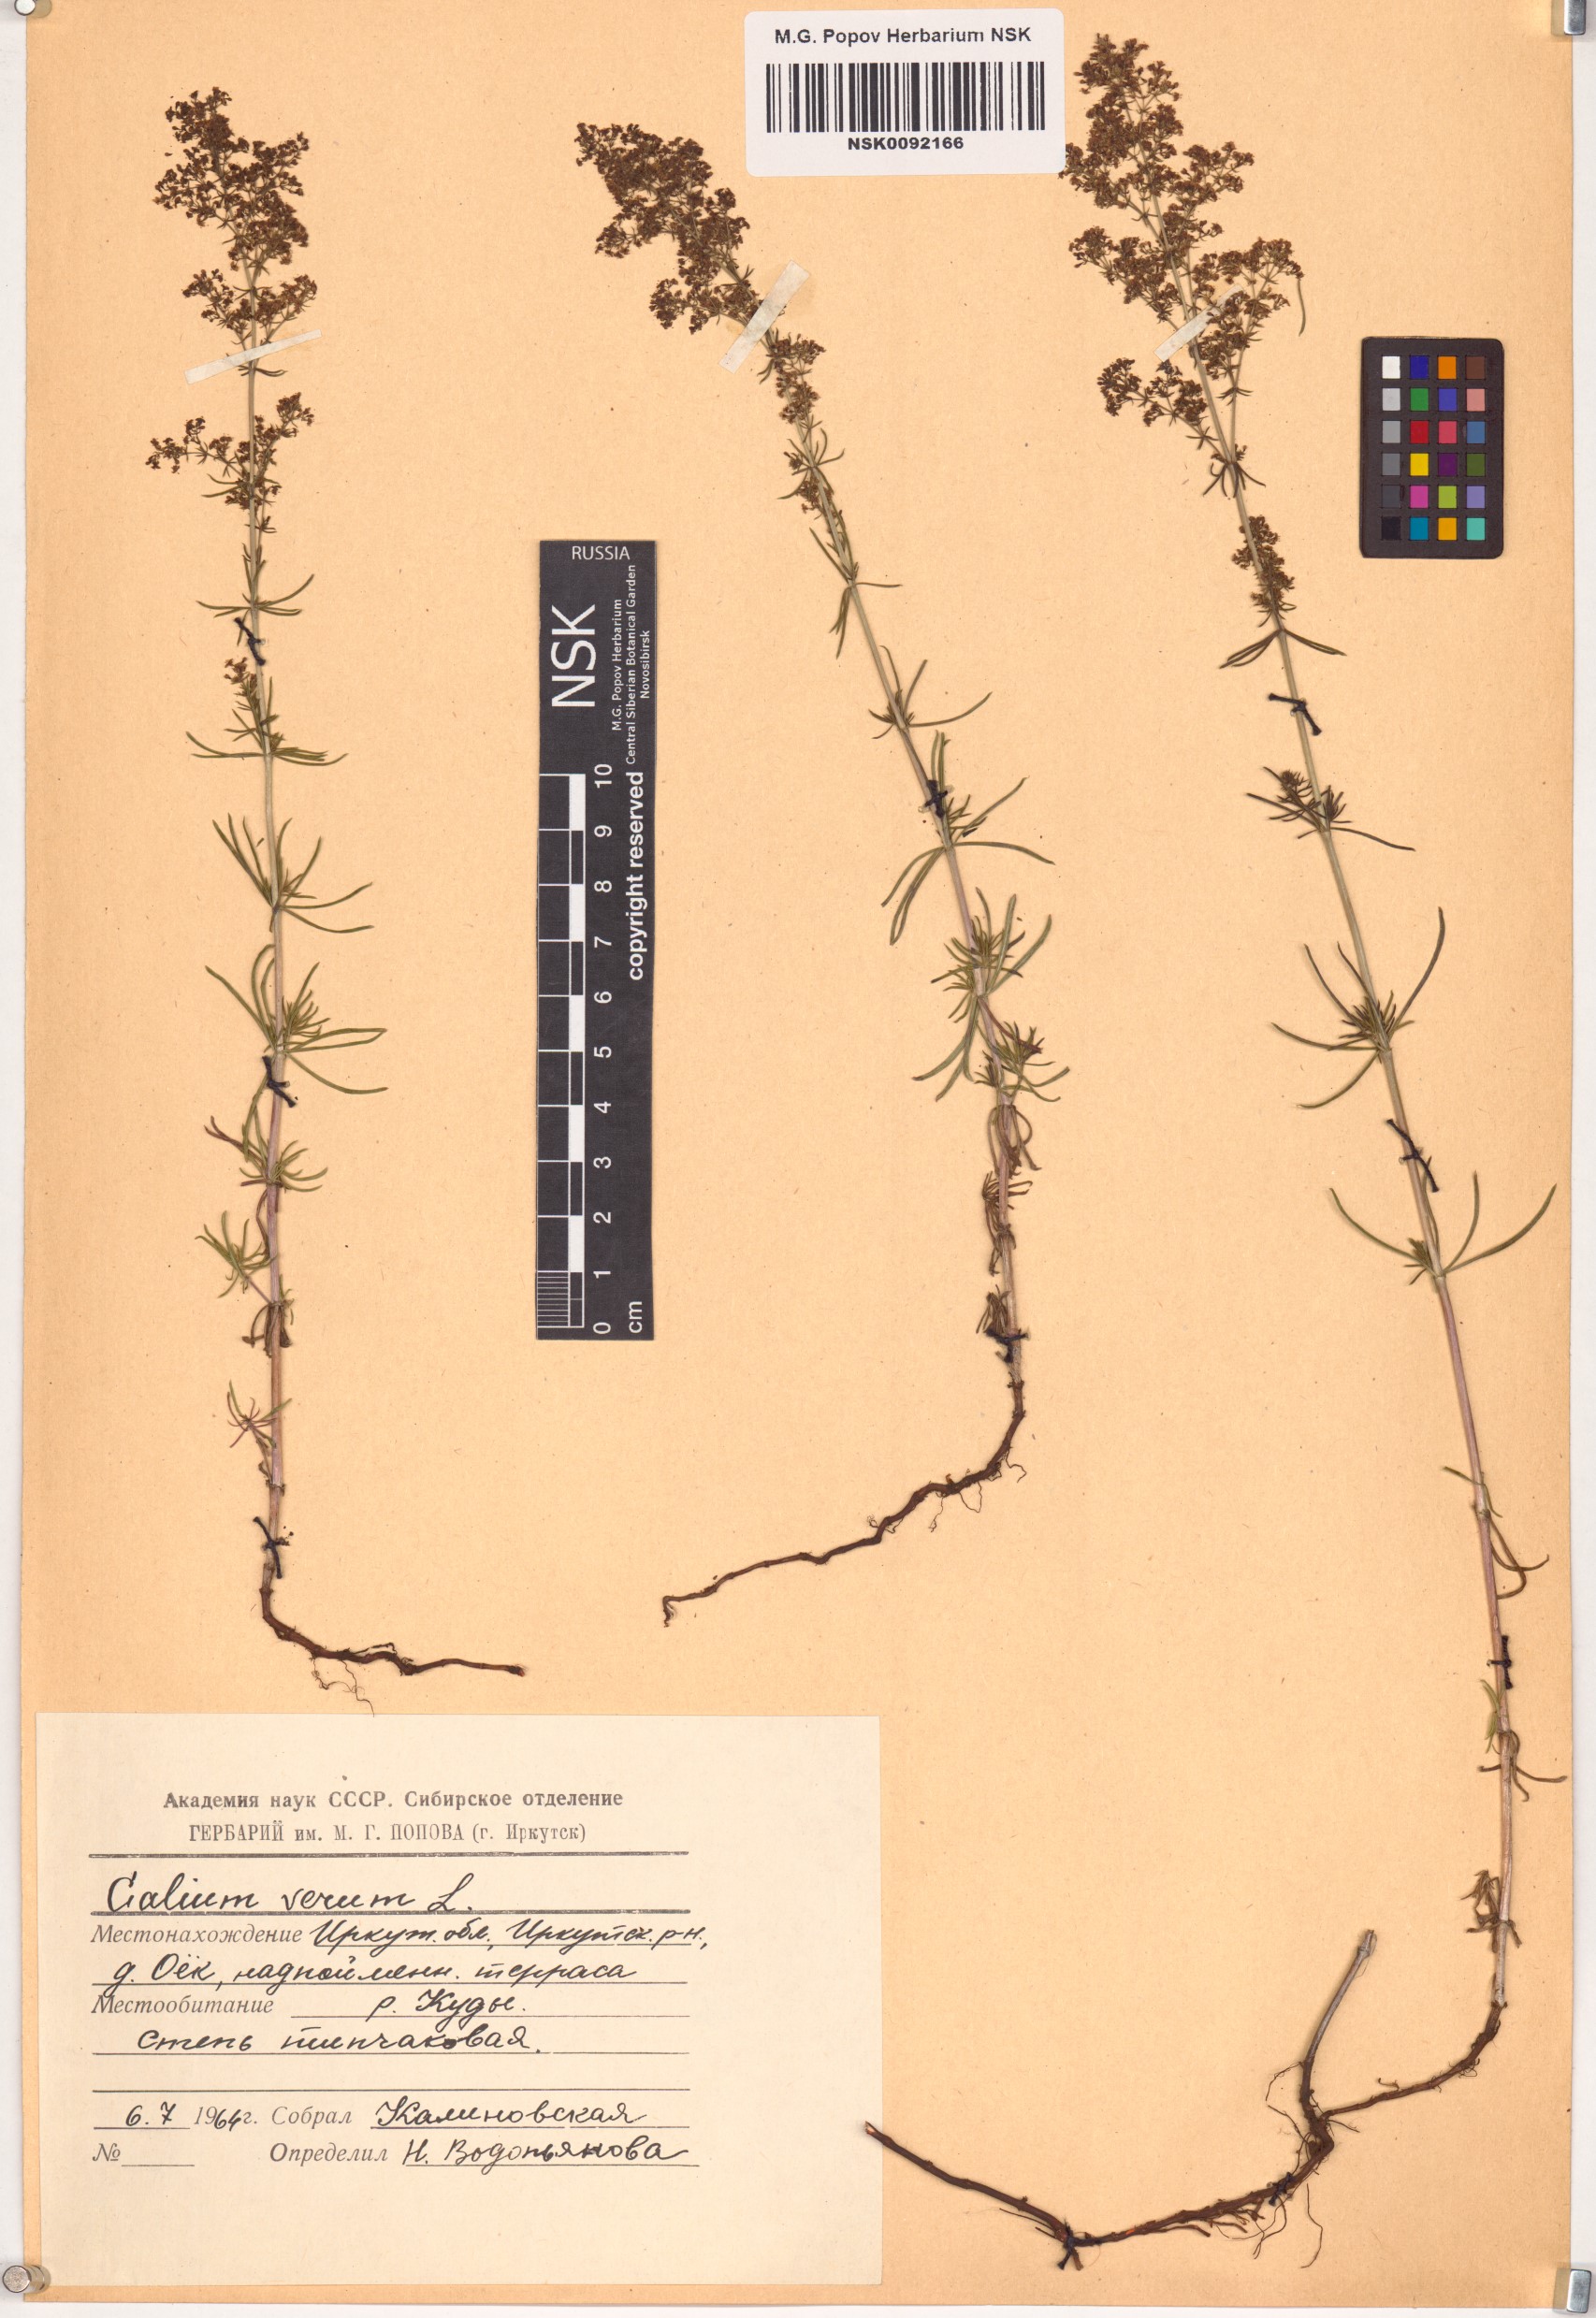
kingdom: Plantae
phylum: Tracheophyta
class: Magnoliopsida
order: Gentianales
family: Rubiaceae
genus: Galium
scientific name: Galium verum
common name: Lady's bedstraw
